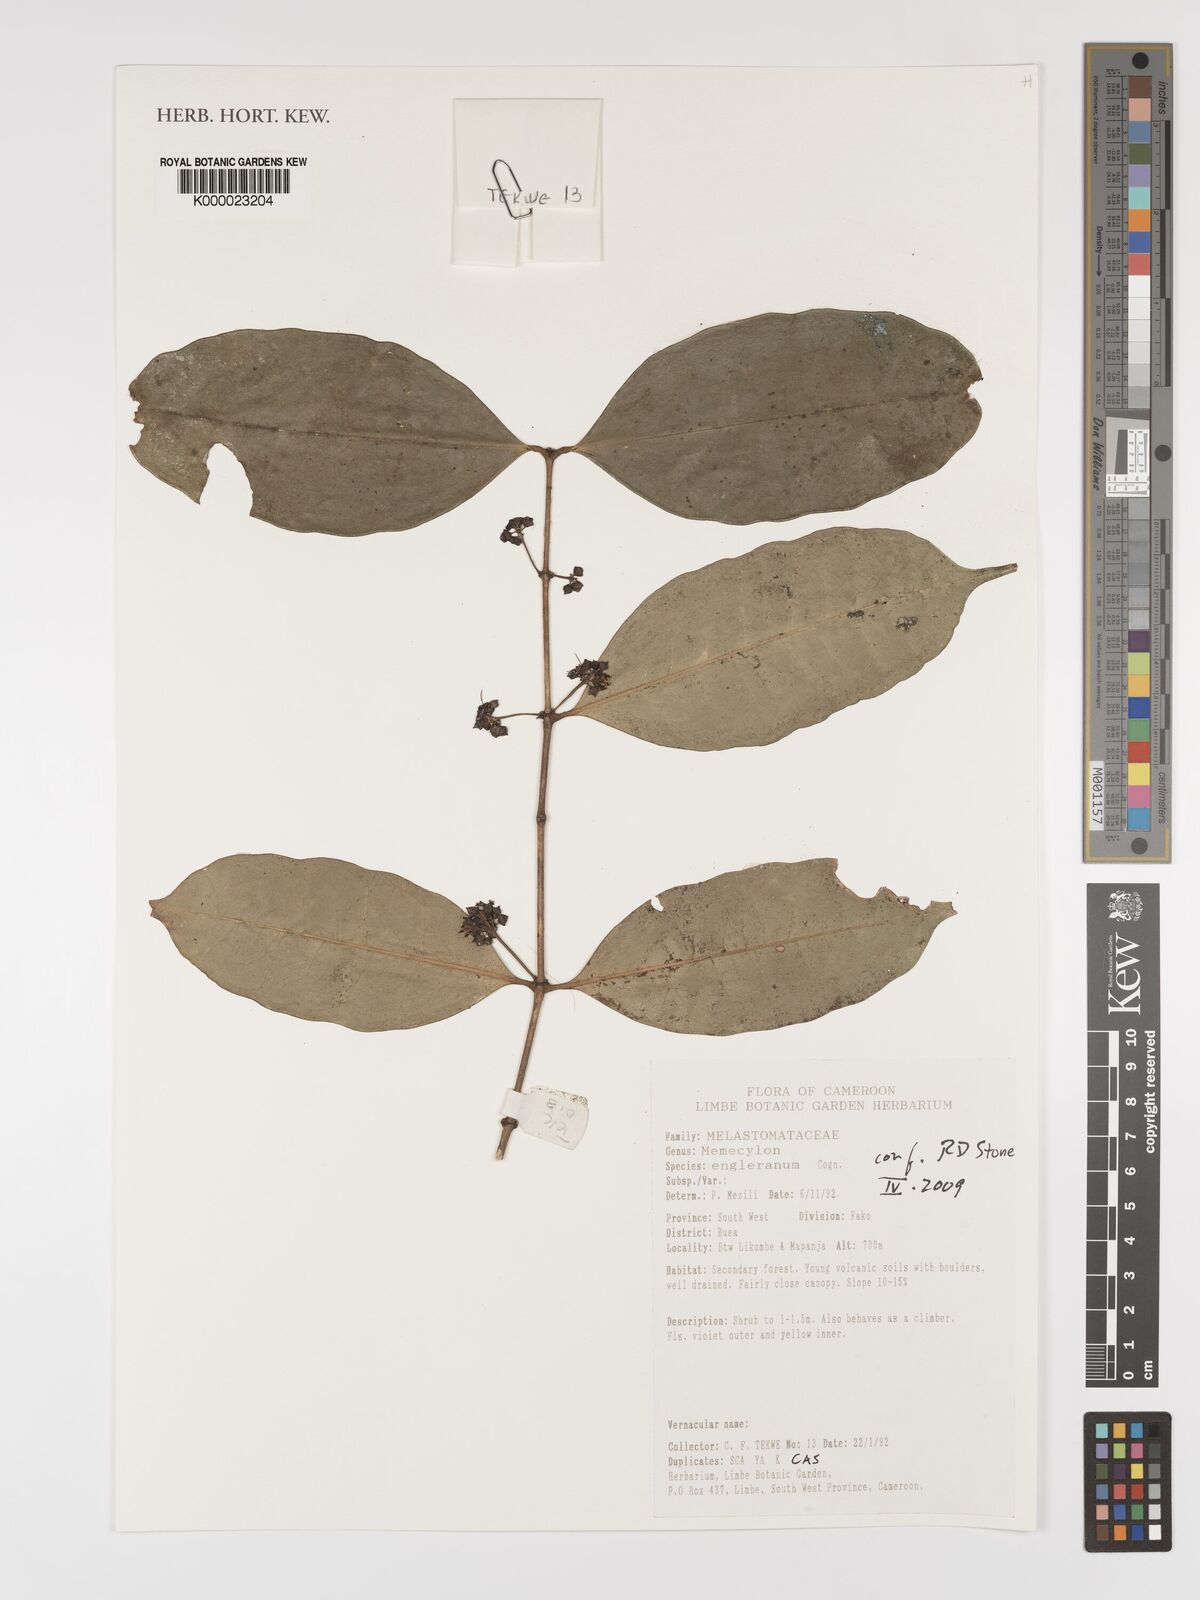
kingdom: Plantae
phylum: Tracheophyta
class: Magnoliopsida
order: Myrtales
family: Melastomataceae
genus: Memecylon
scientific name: Memecylon englerianum
